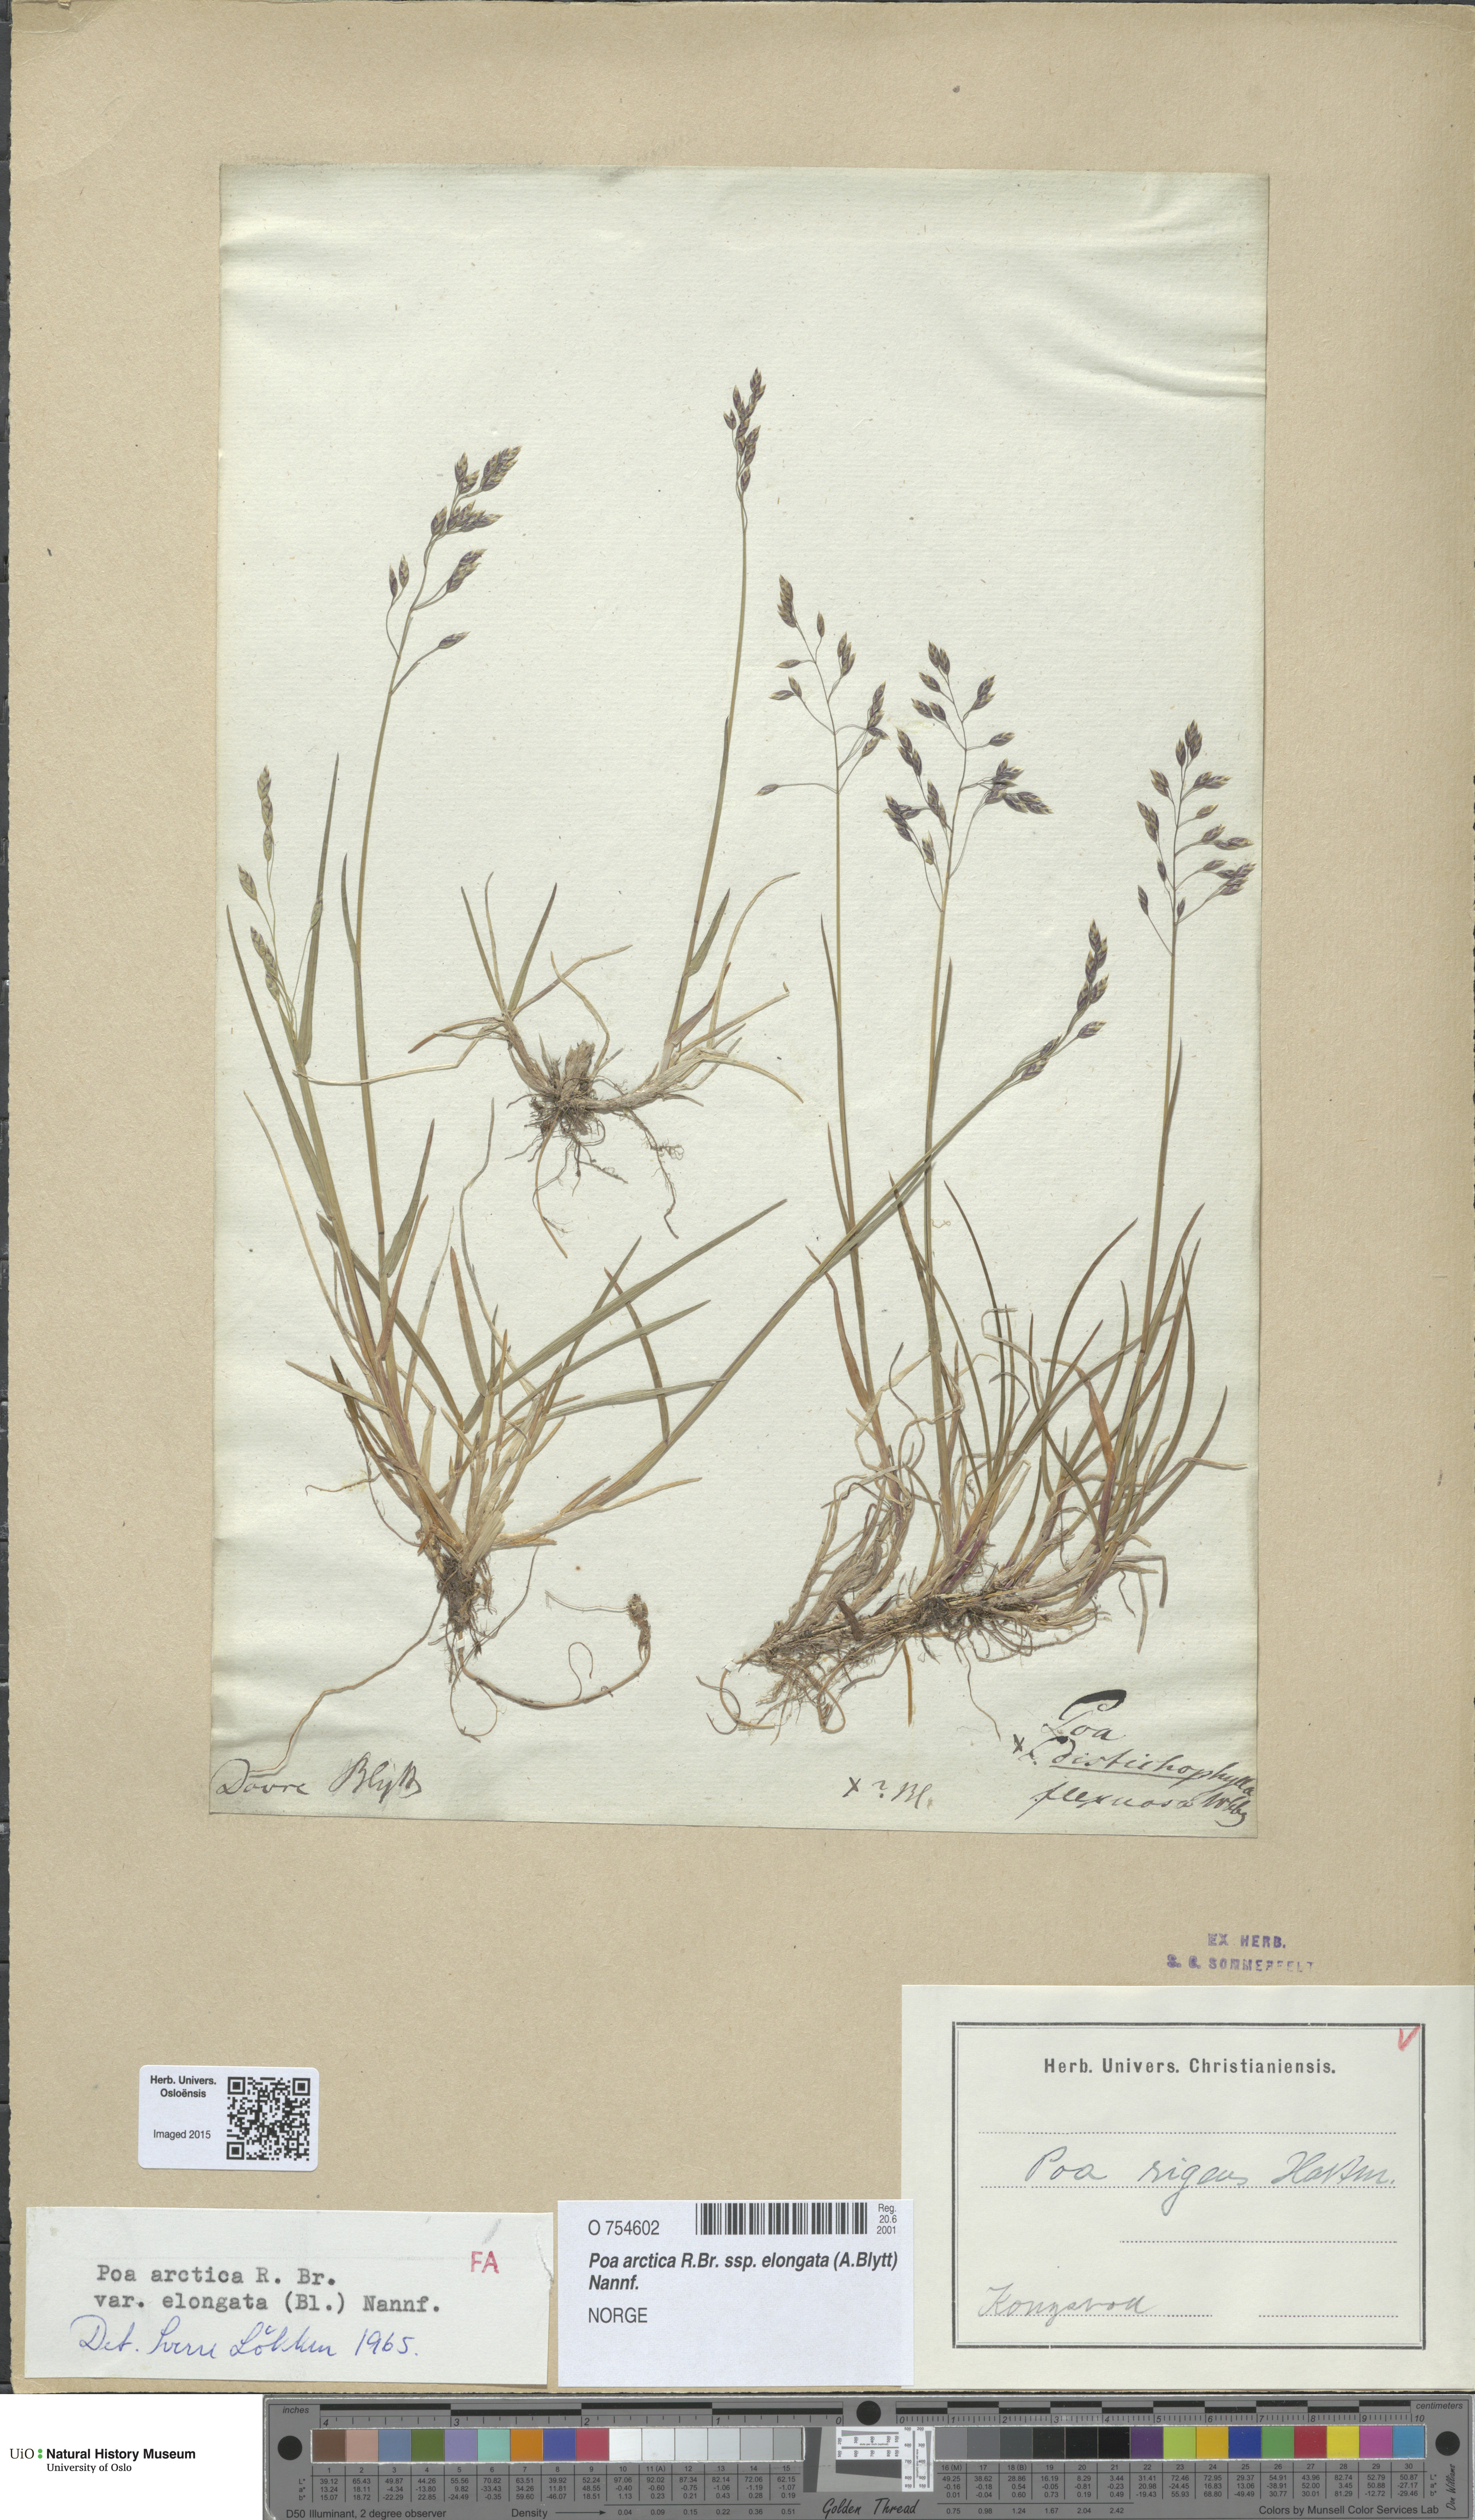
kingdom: Plantae
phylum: Tracheophyta
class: Liliopsida
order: Poales
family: Poaceae
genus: Poa
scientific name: Poa arctica
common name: Arctic bluegrass
